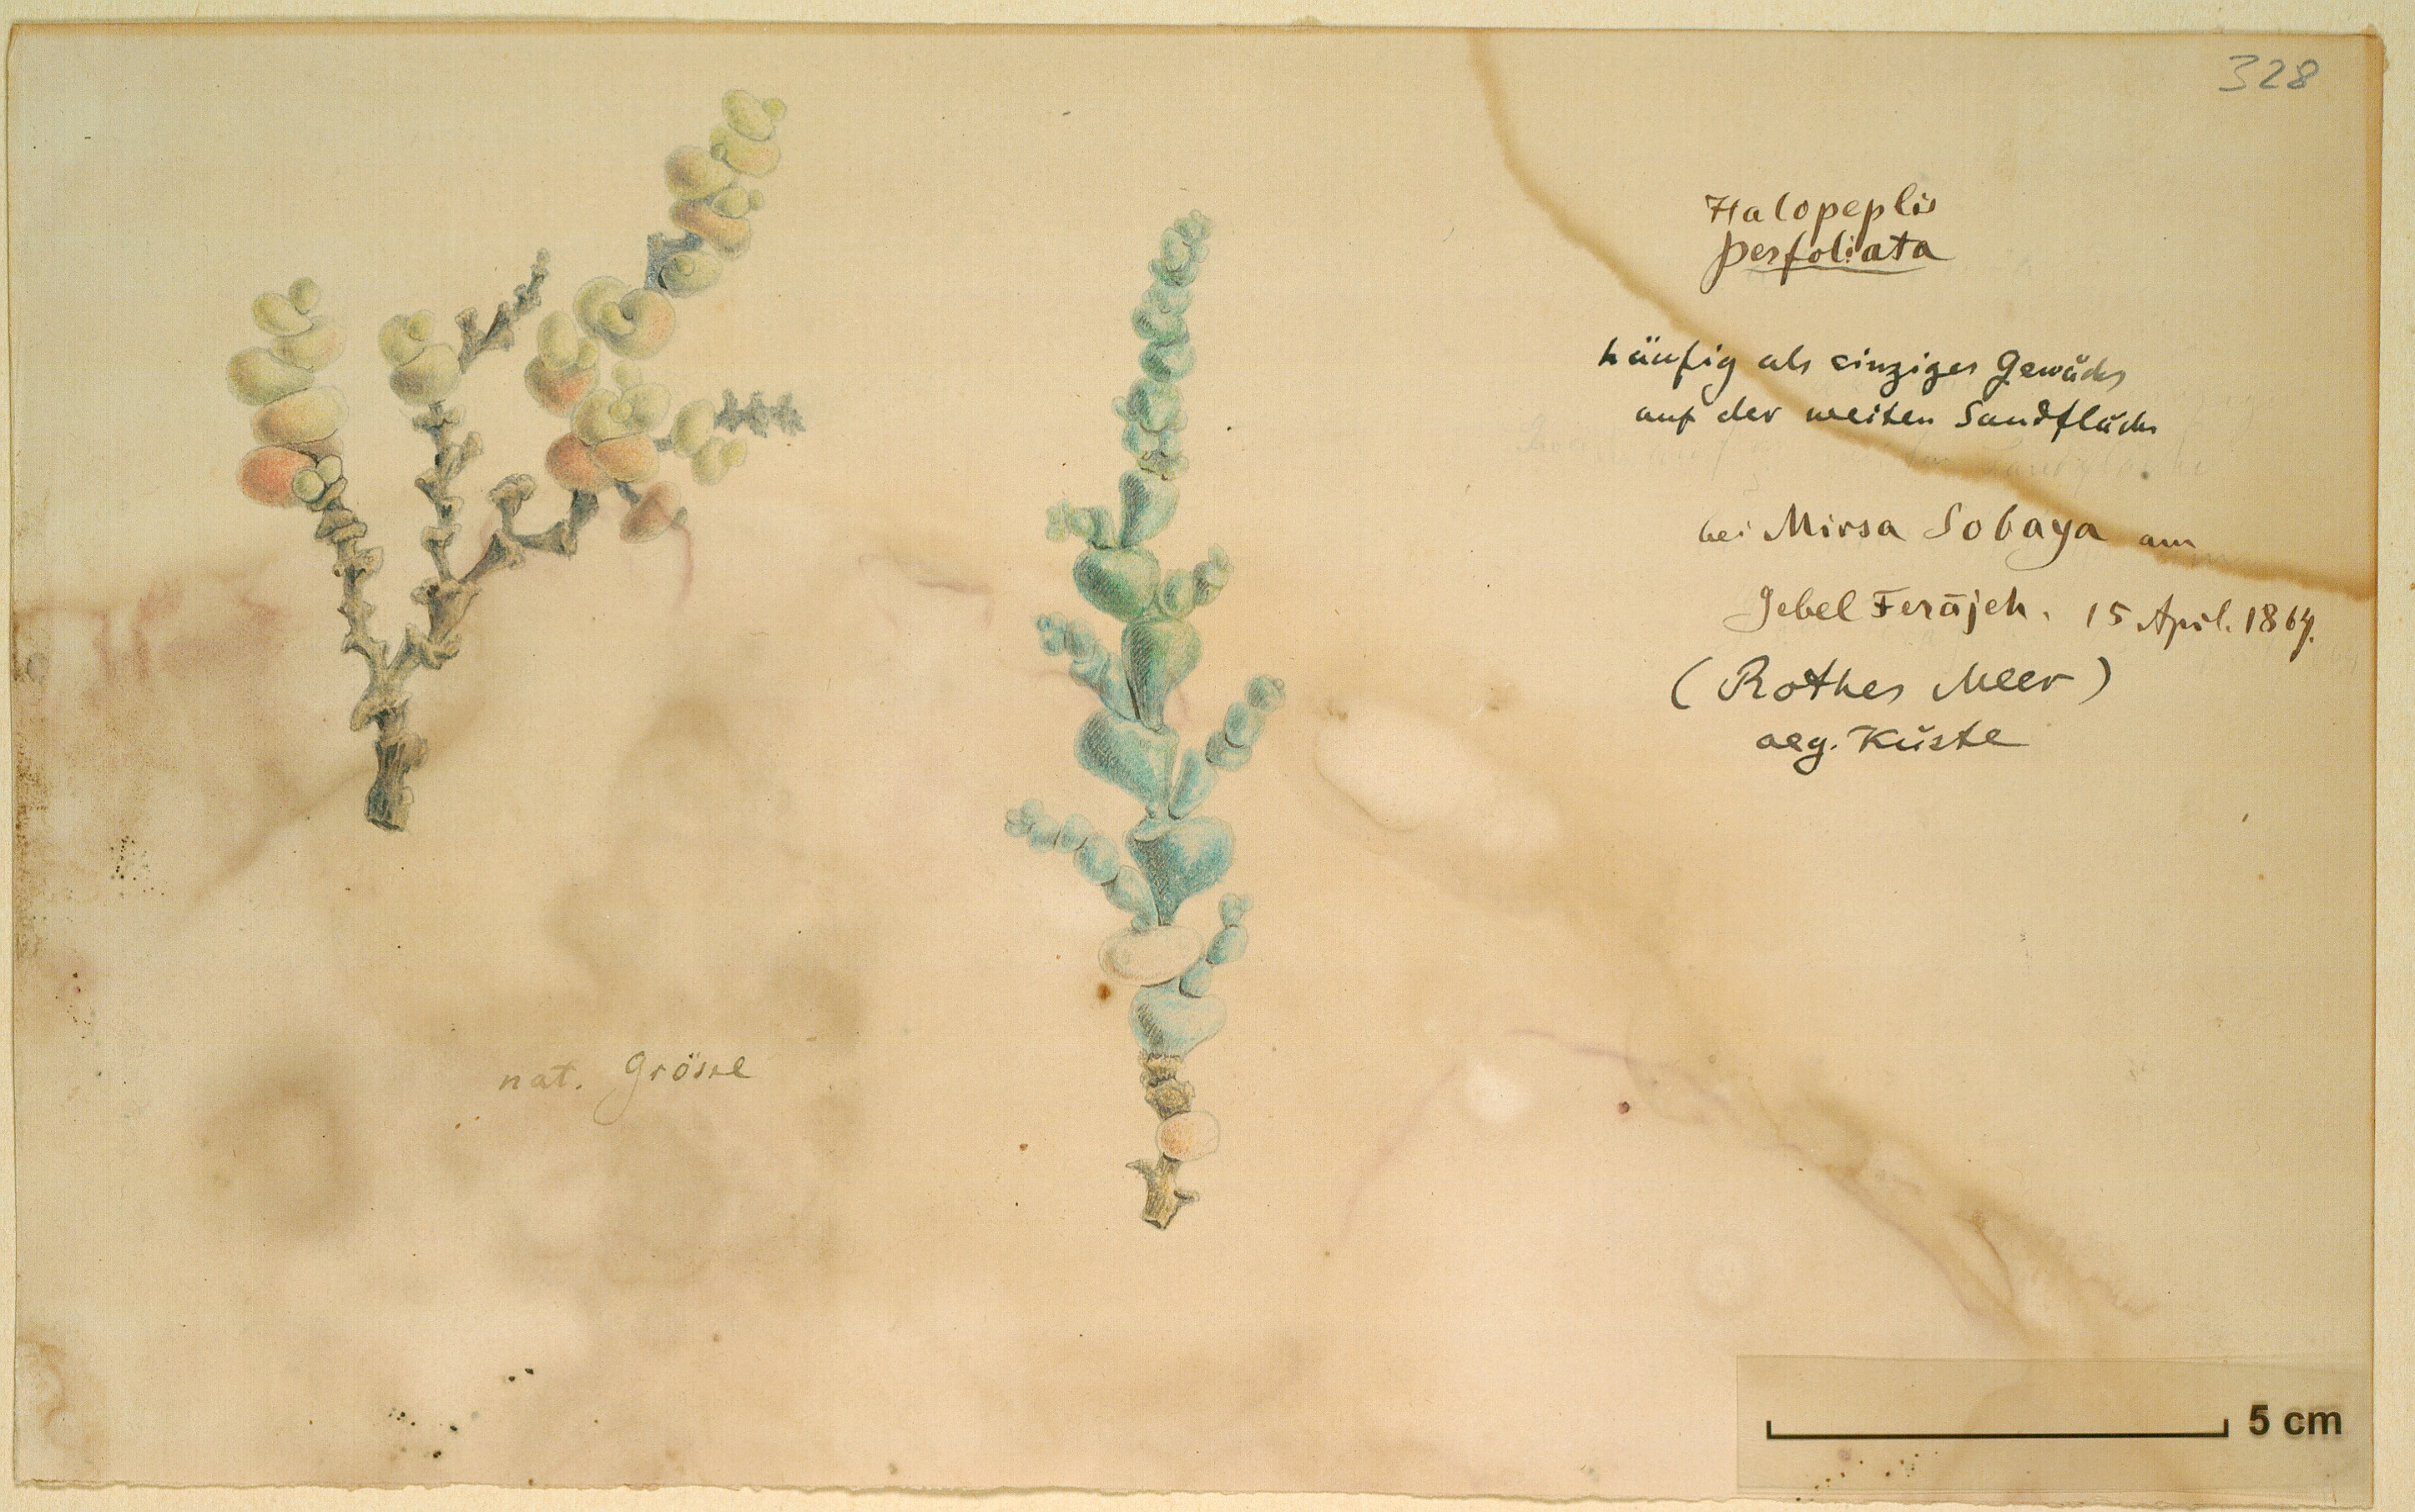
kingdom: Plantae
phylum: Tracheophyta
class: Magnoliopsida
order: Caryophyllales
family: Amaranthaceae
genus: Halocnemum
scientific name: Halocnemum strobilaceum
